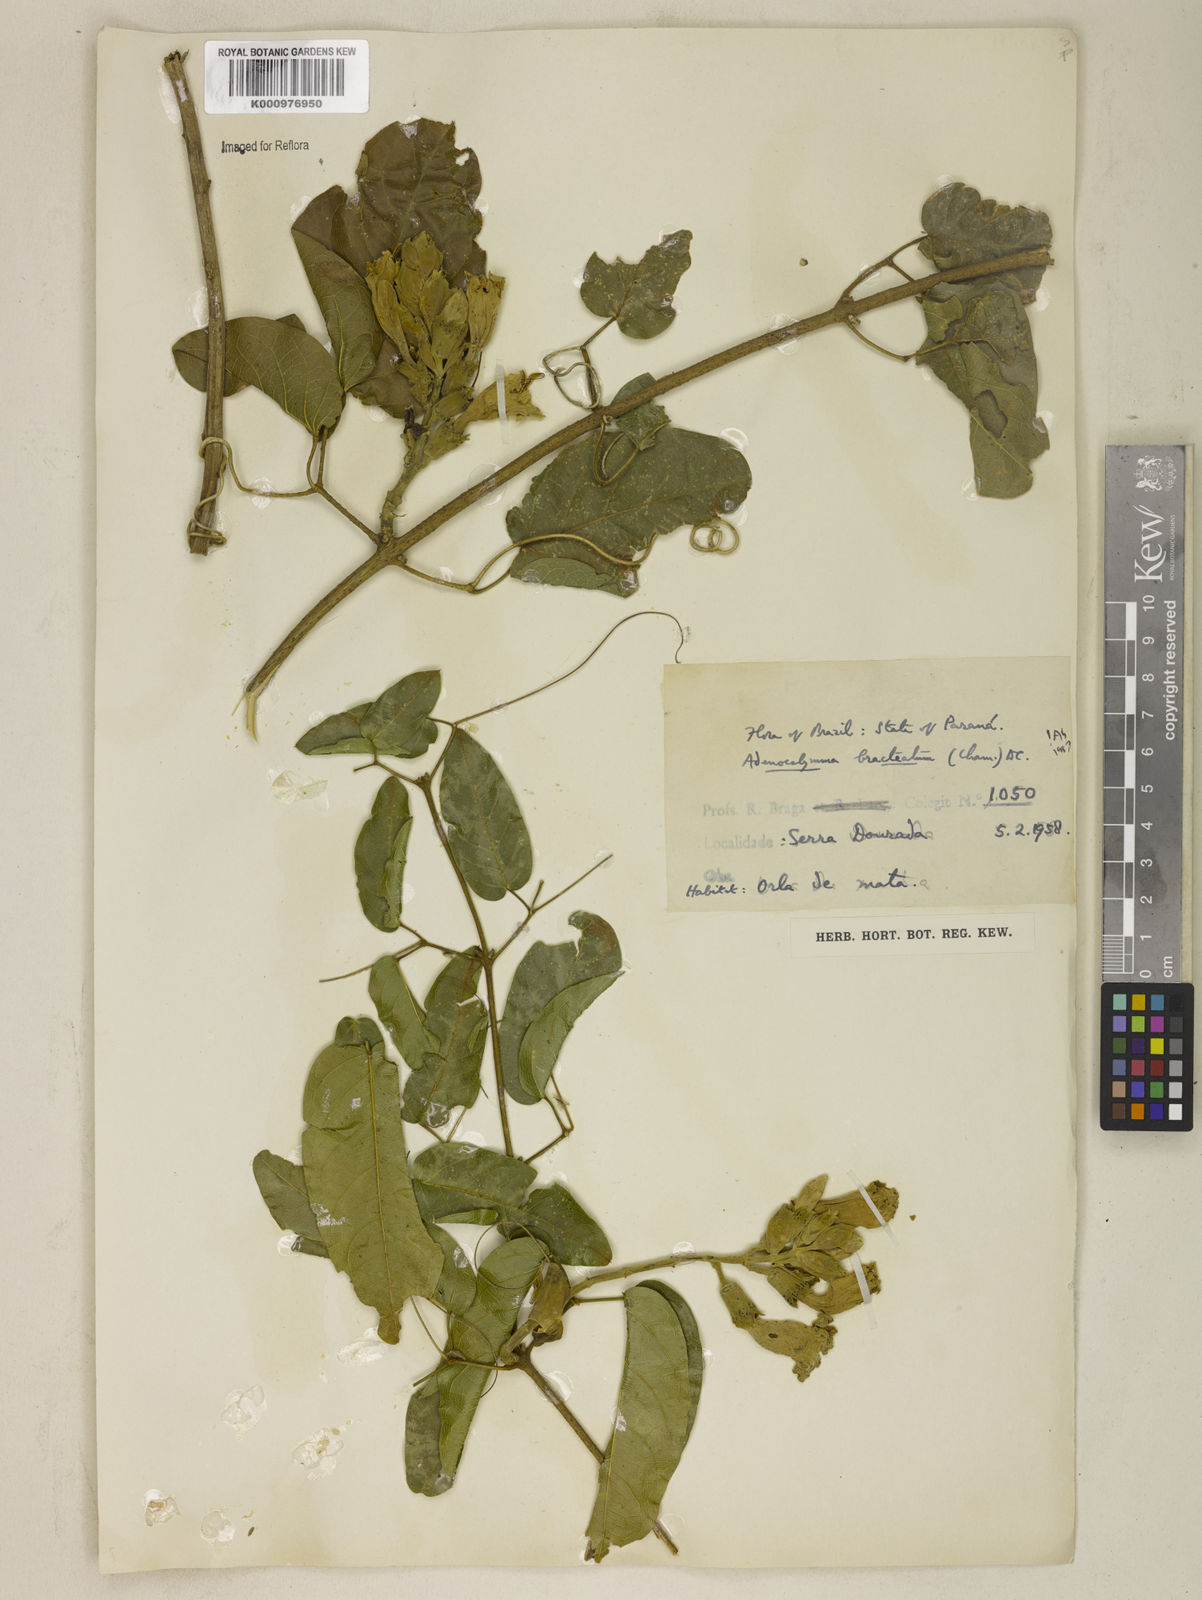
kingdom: Plantae
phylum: Tracheophyta
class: Magnoliopsida
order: Lamiales
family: Bignoniaceae
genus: Adenocalymma
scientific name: Adenocalymma bracteatum
